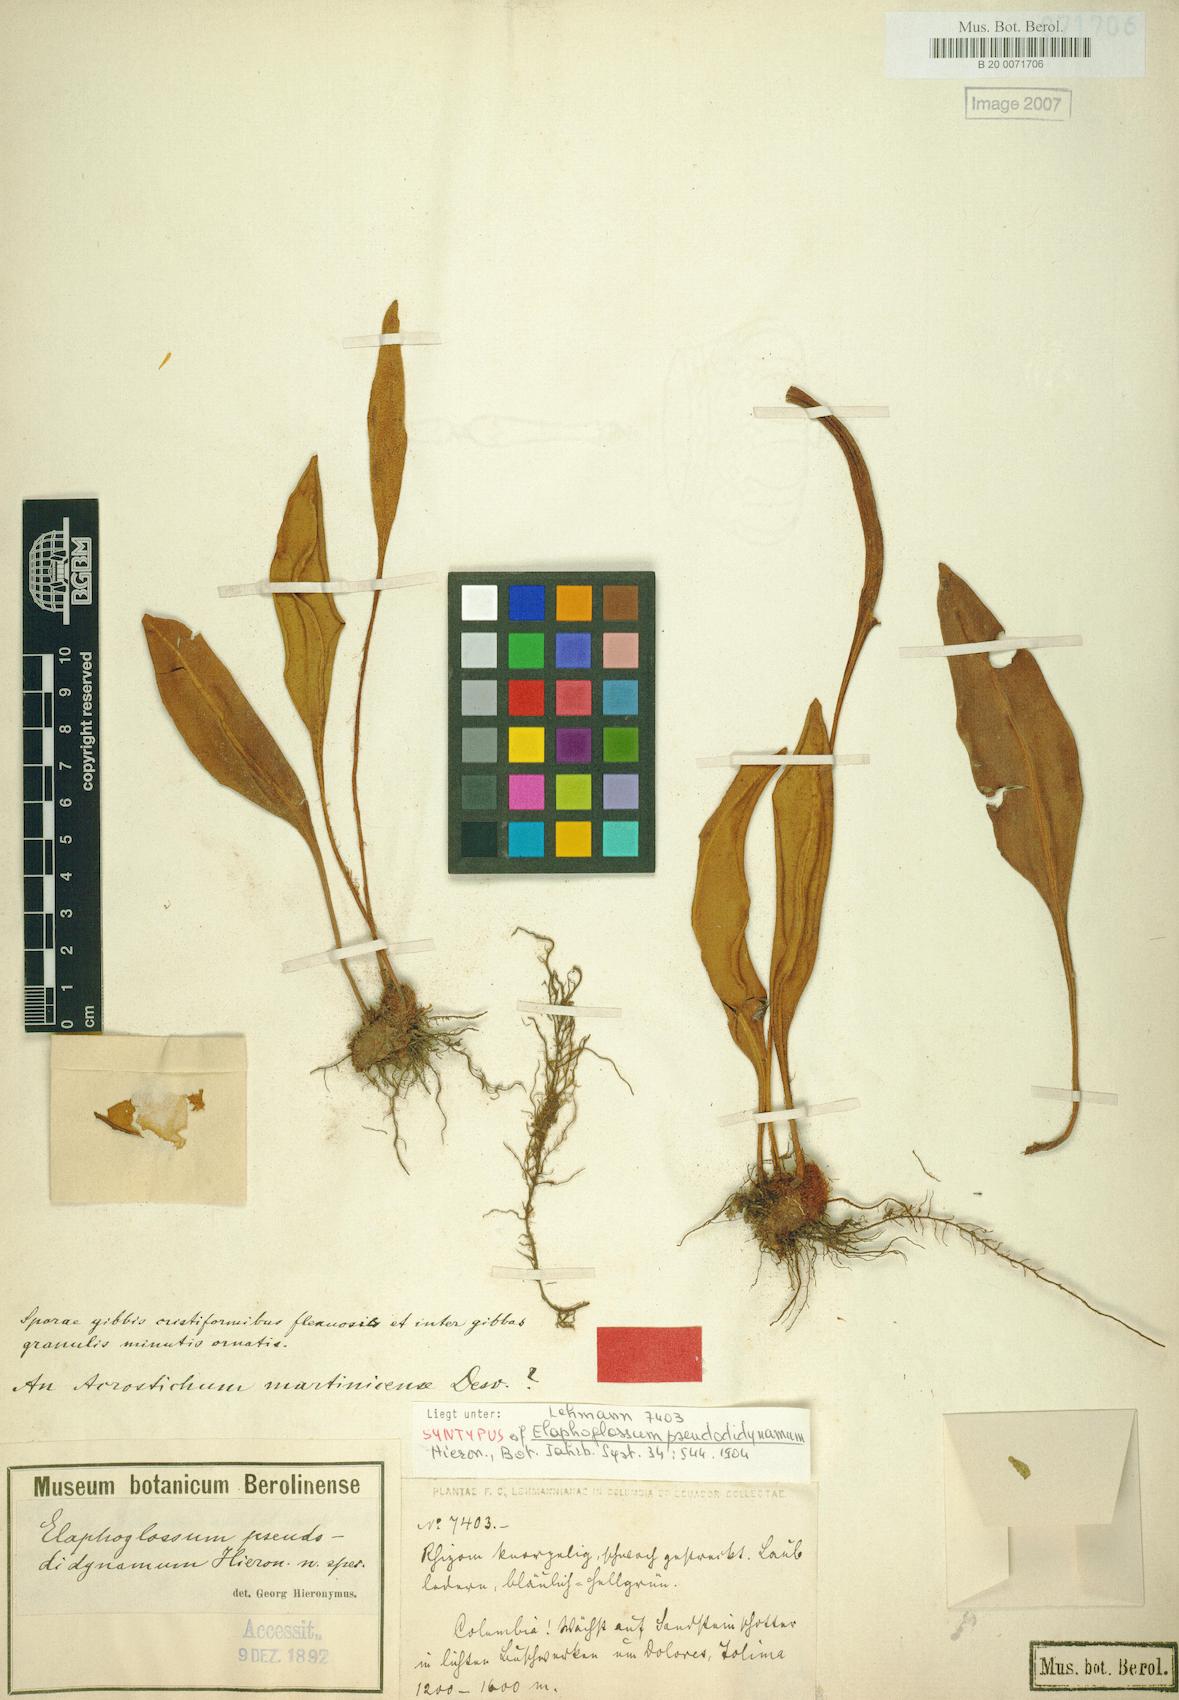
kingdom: Plantae
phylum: Tracheophyta
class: Polypodiopsida
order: Polypodiales
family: Dryopteridaceae
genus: Elaphoglossum
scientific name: Elaphoglossum pseudodidynamum
